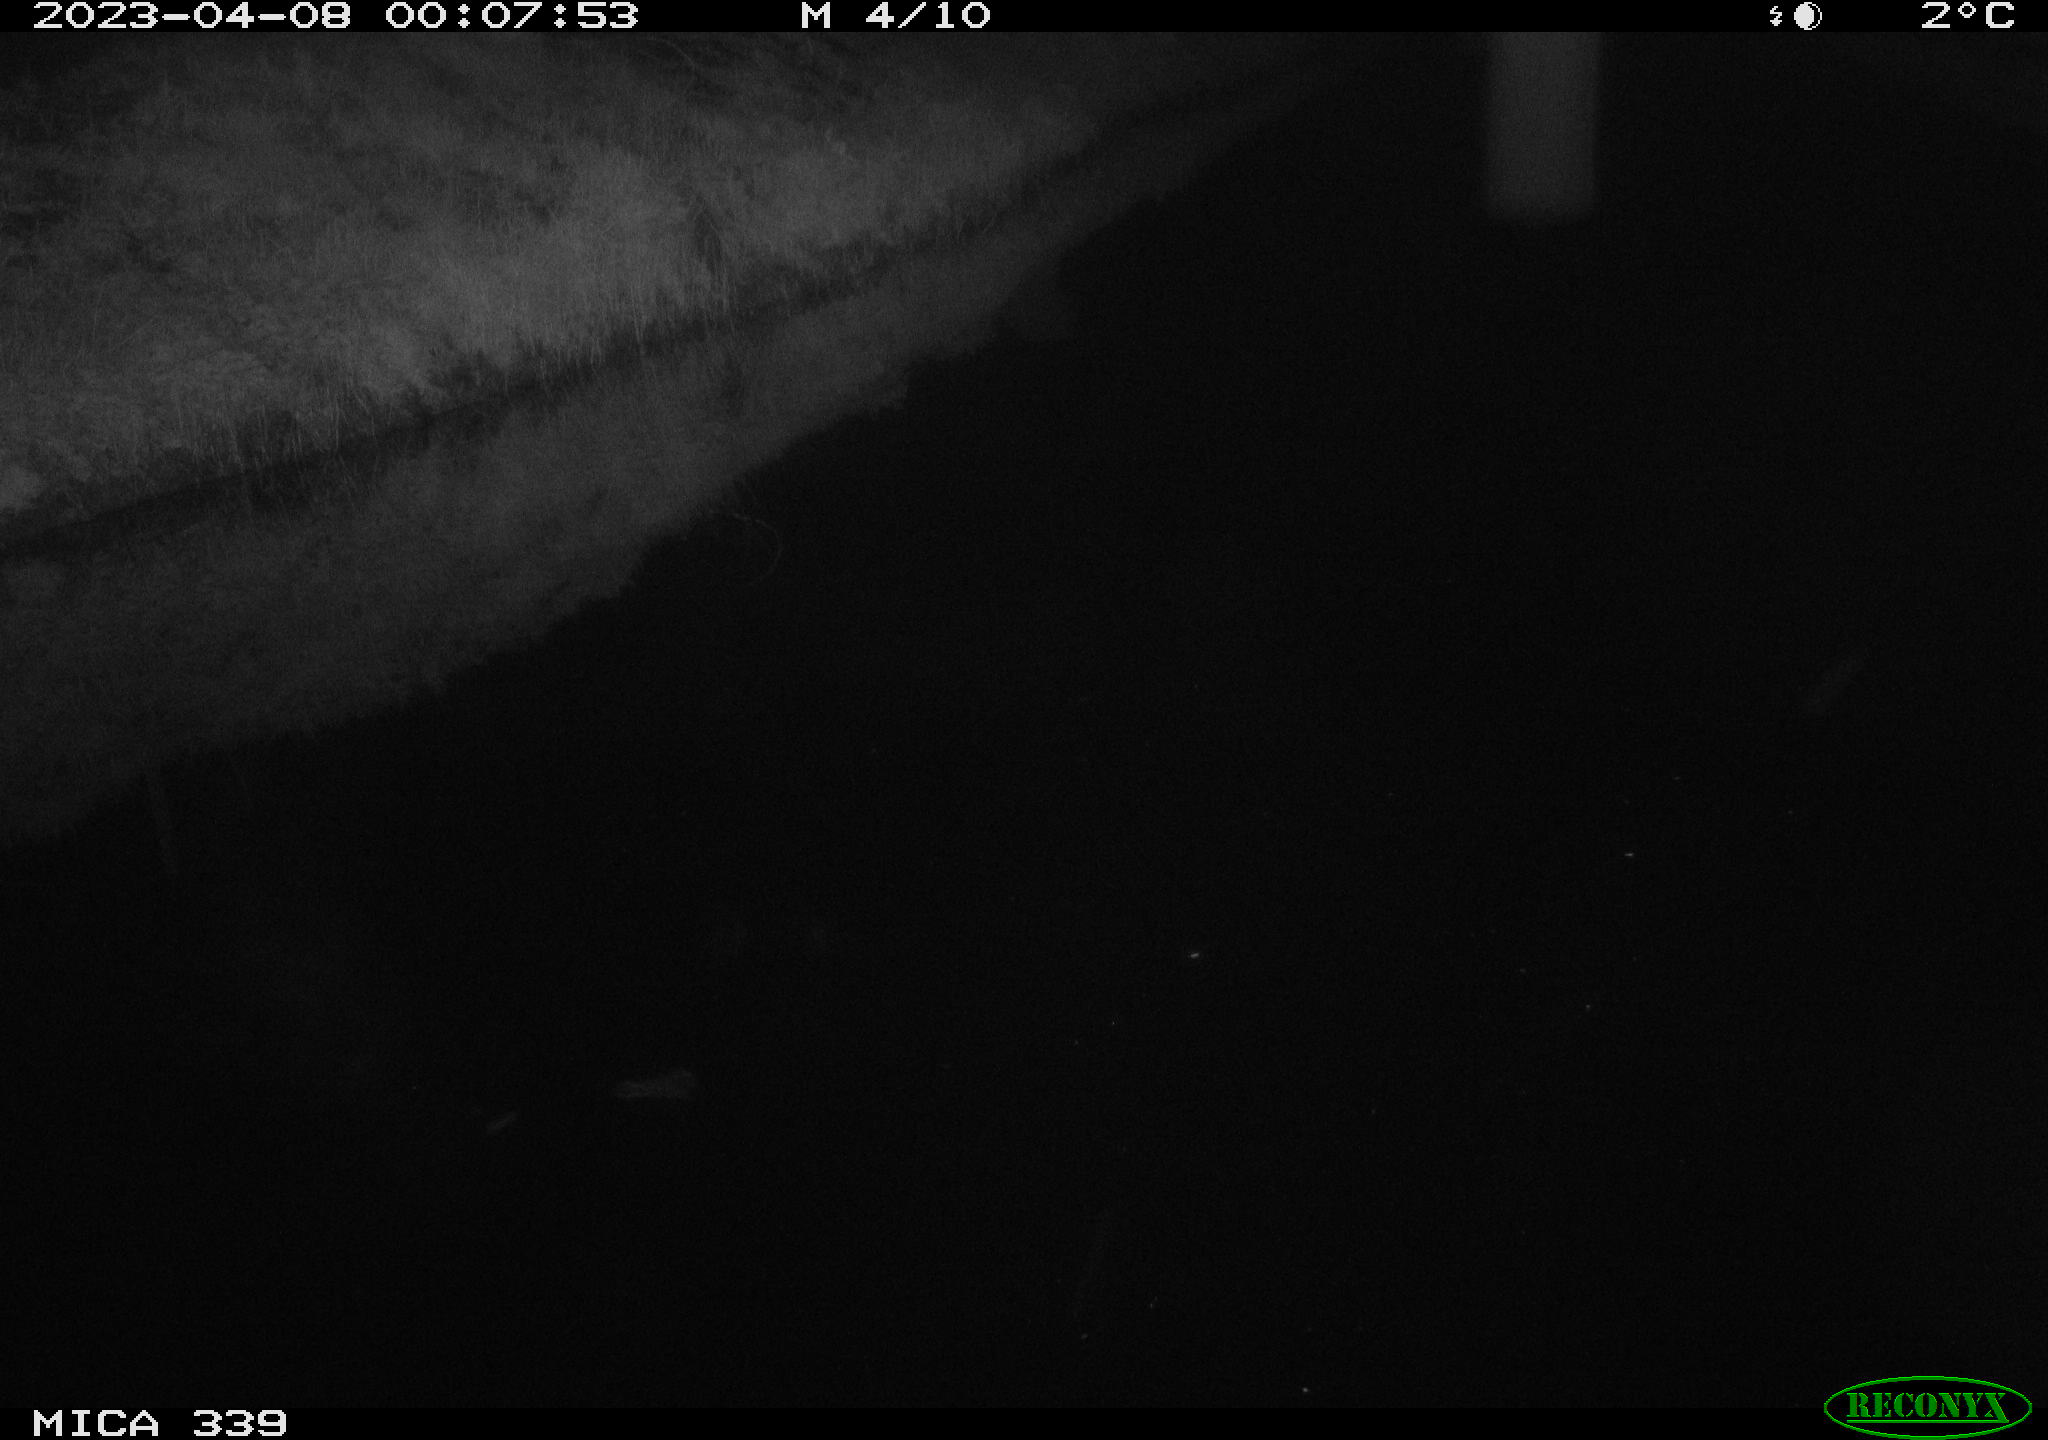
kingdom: Animalia
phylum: Chordata
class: Aves
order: Pelecaniformes
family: Ardeidae
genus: Ardea
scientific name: Ardea cinerea
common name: Grey heron
